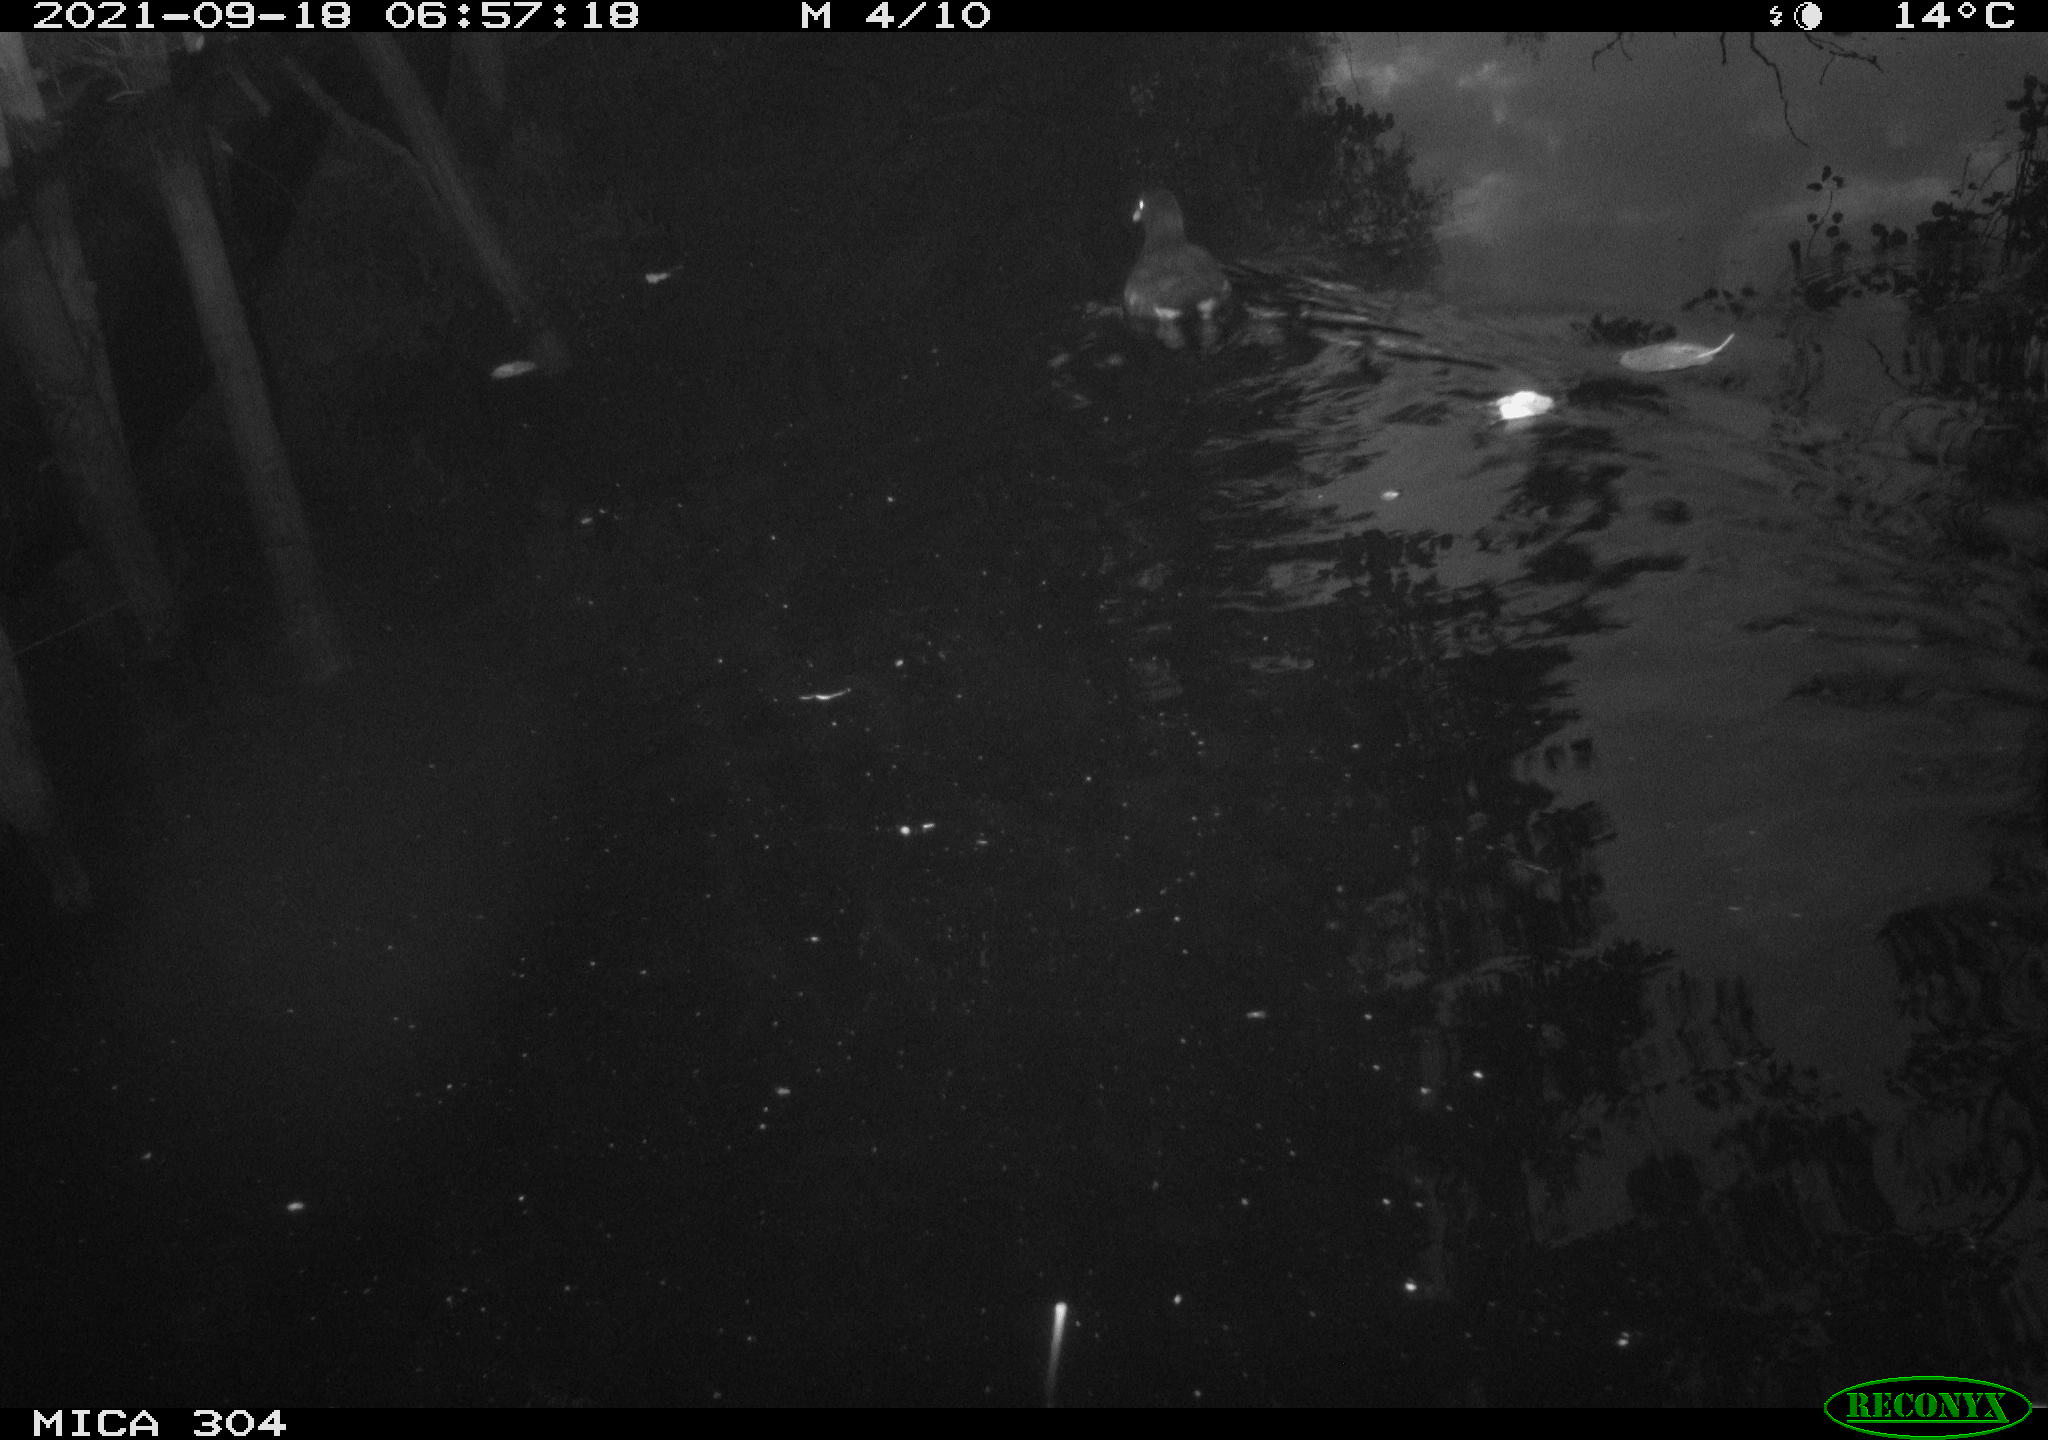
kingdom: Animalia
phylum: Chordata
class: Aves
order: Gruiformes
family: Rallidae
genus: Gallinula
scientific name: Gallinula chloropus
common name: Common moorhen
